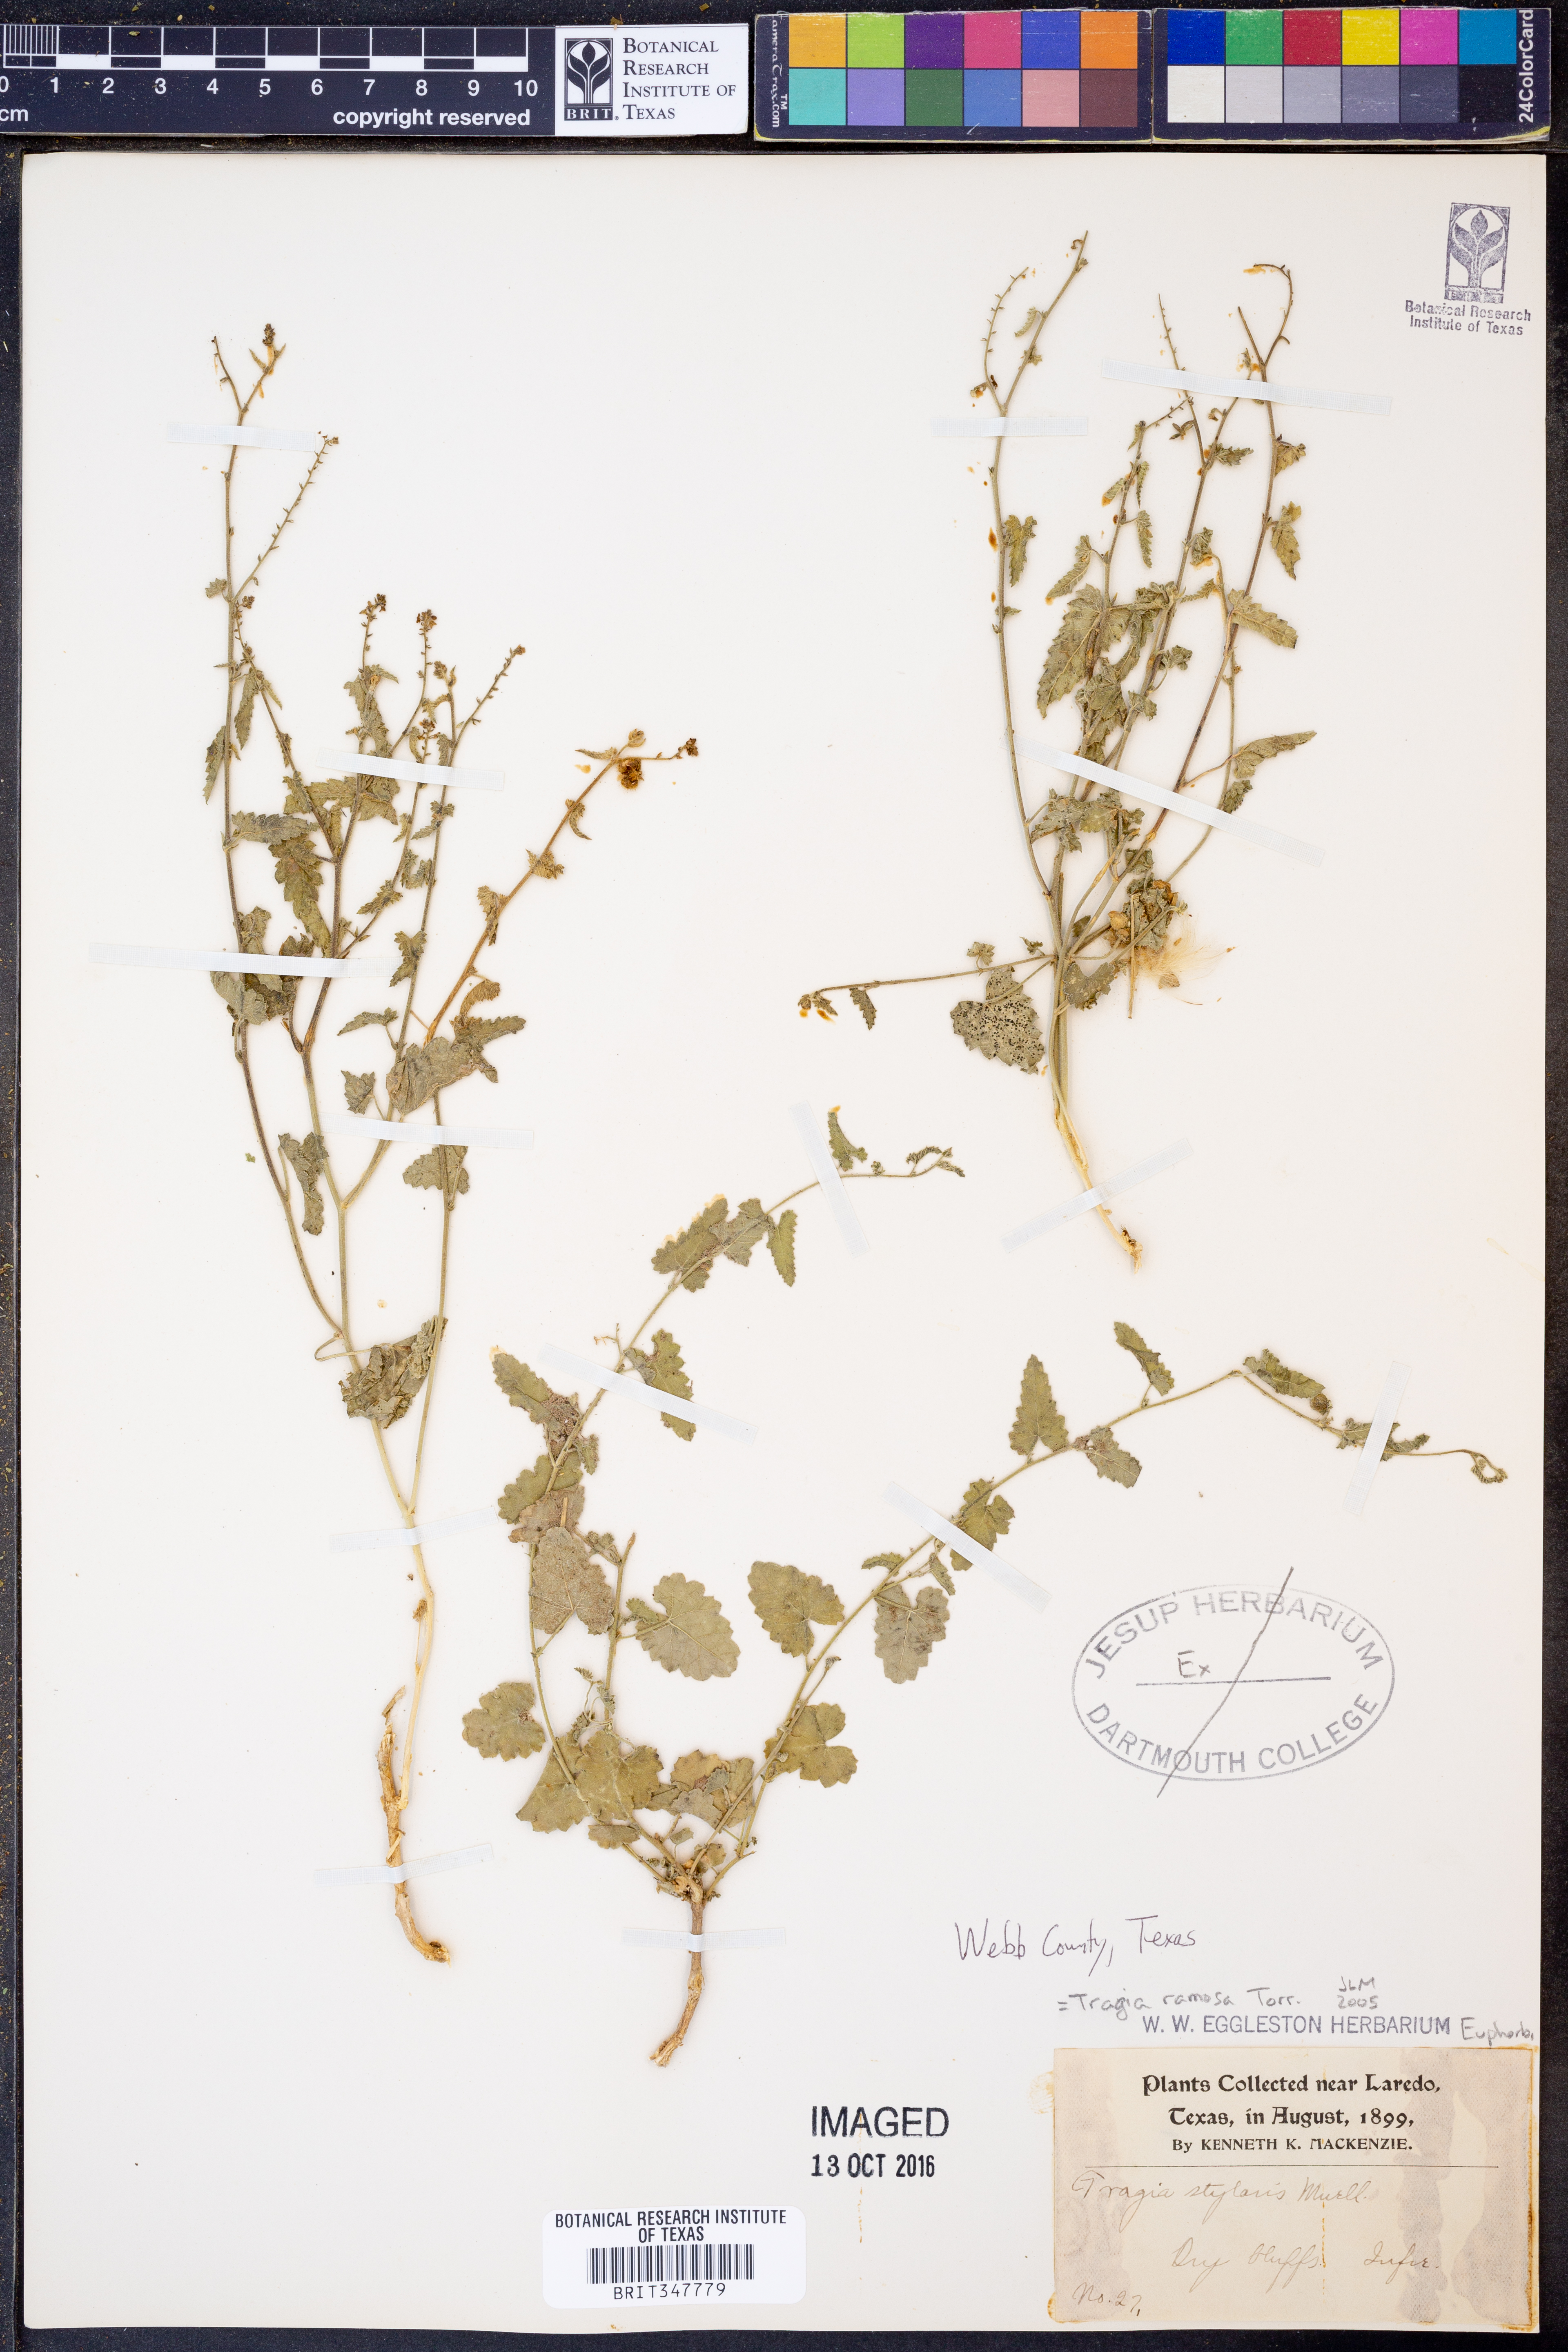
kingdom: Plantae
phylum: Tracheophyta
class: Magnoliopsida
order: Malpighiales
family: Euphorbiaceae
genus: Tragia
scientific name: Tragia ramosa
